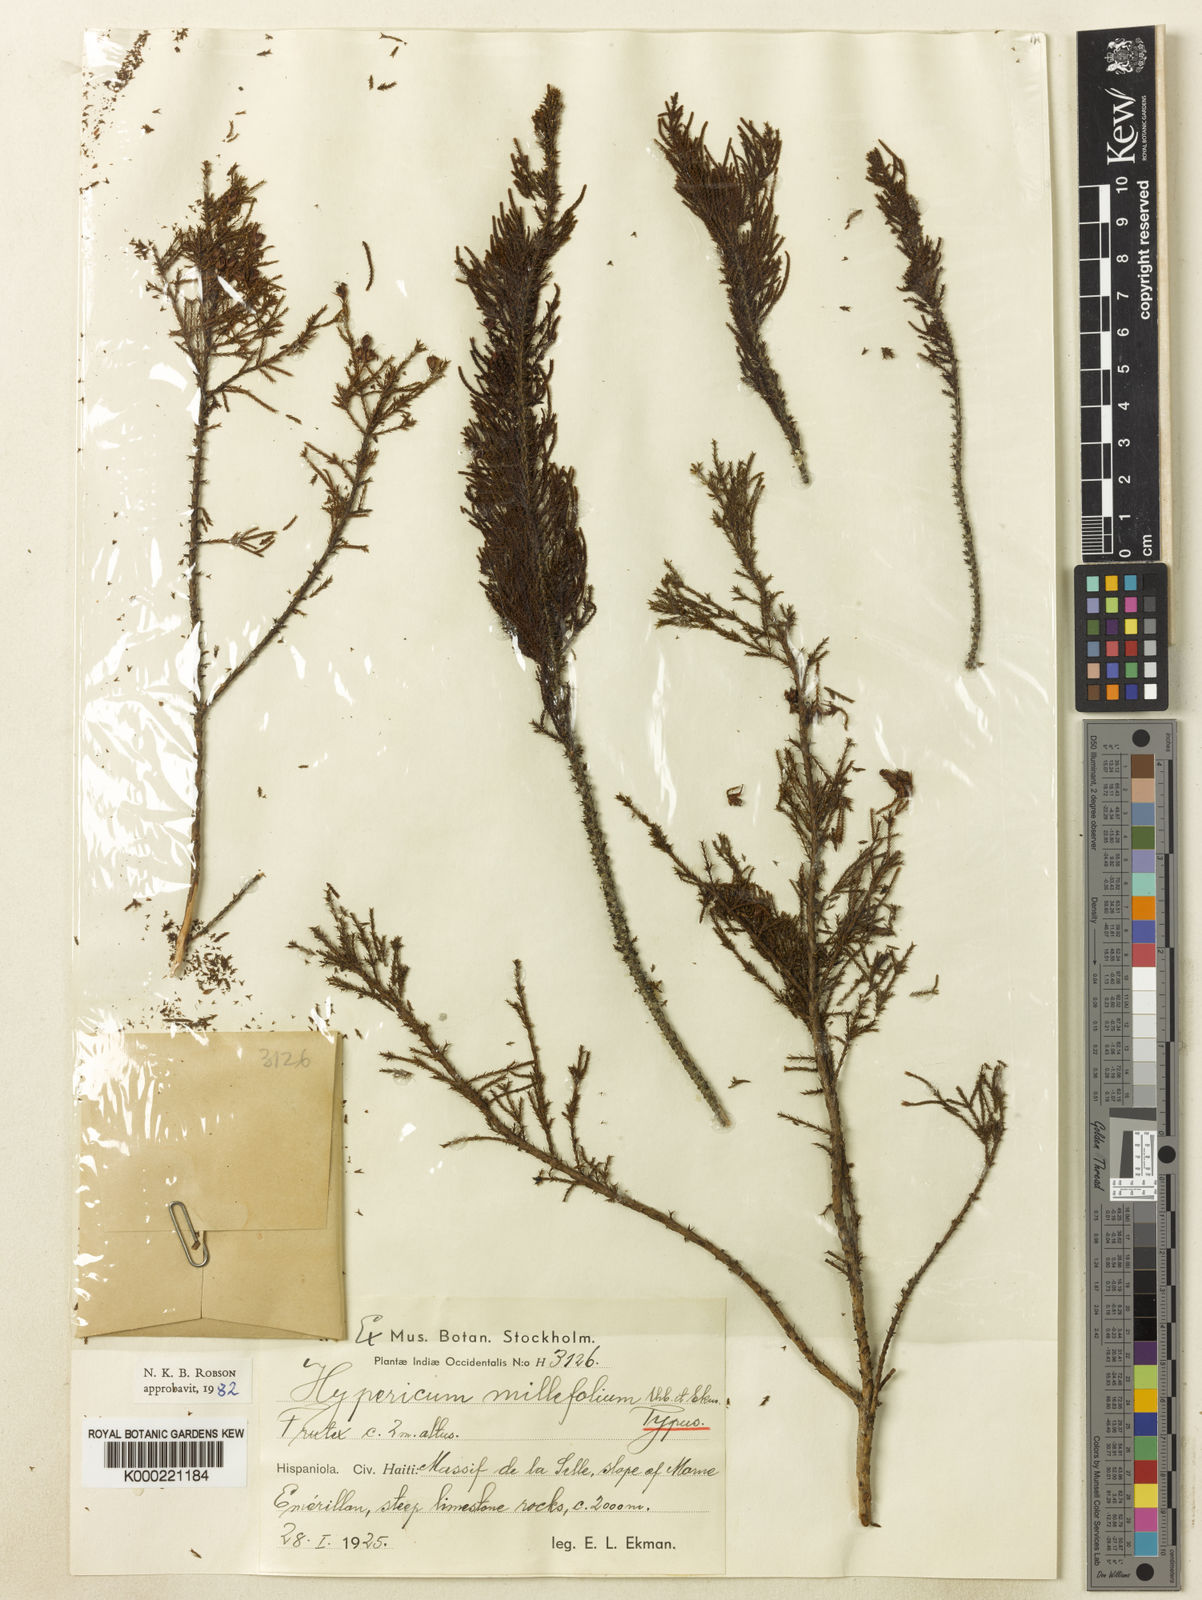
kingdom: Plantae
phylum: Tracheophyta
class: Magnoliopsida
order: Malpighiales
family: Hypericaceae
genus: Hypericum
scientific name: Hypericum millefolium
